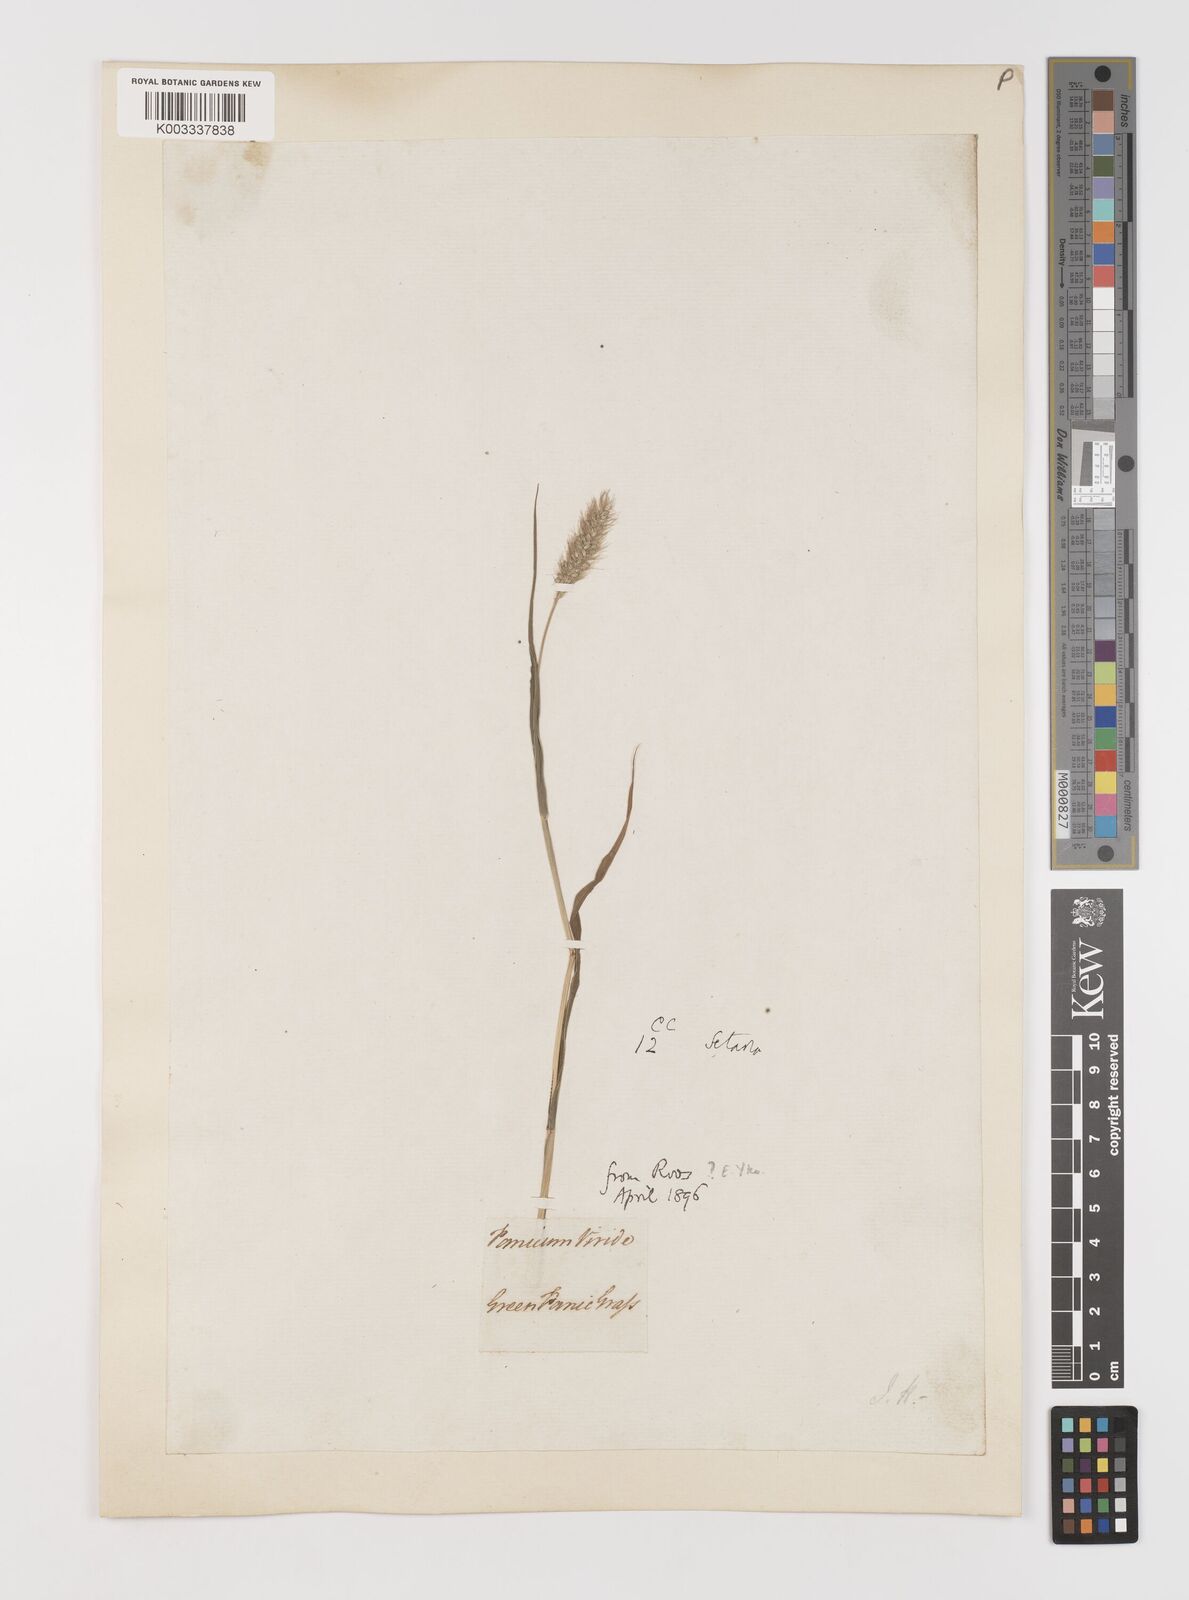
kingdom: Plantae
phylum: Tracheophyta
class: Liliopsida
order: Poales
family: Poaceae
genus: Setaria
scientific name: Setaria viridis
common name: Green bristlegrass
